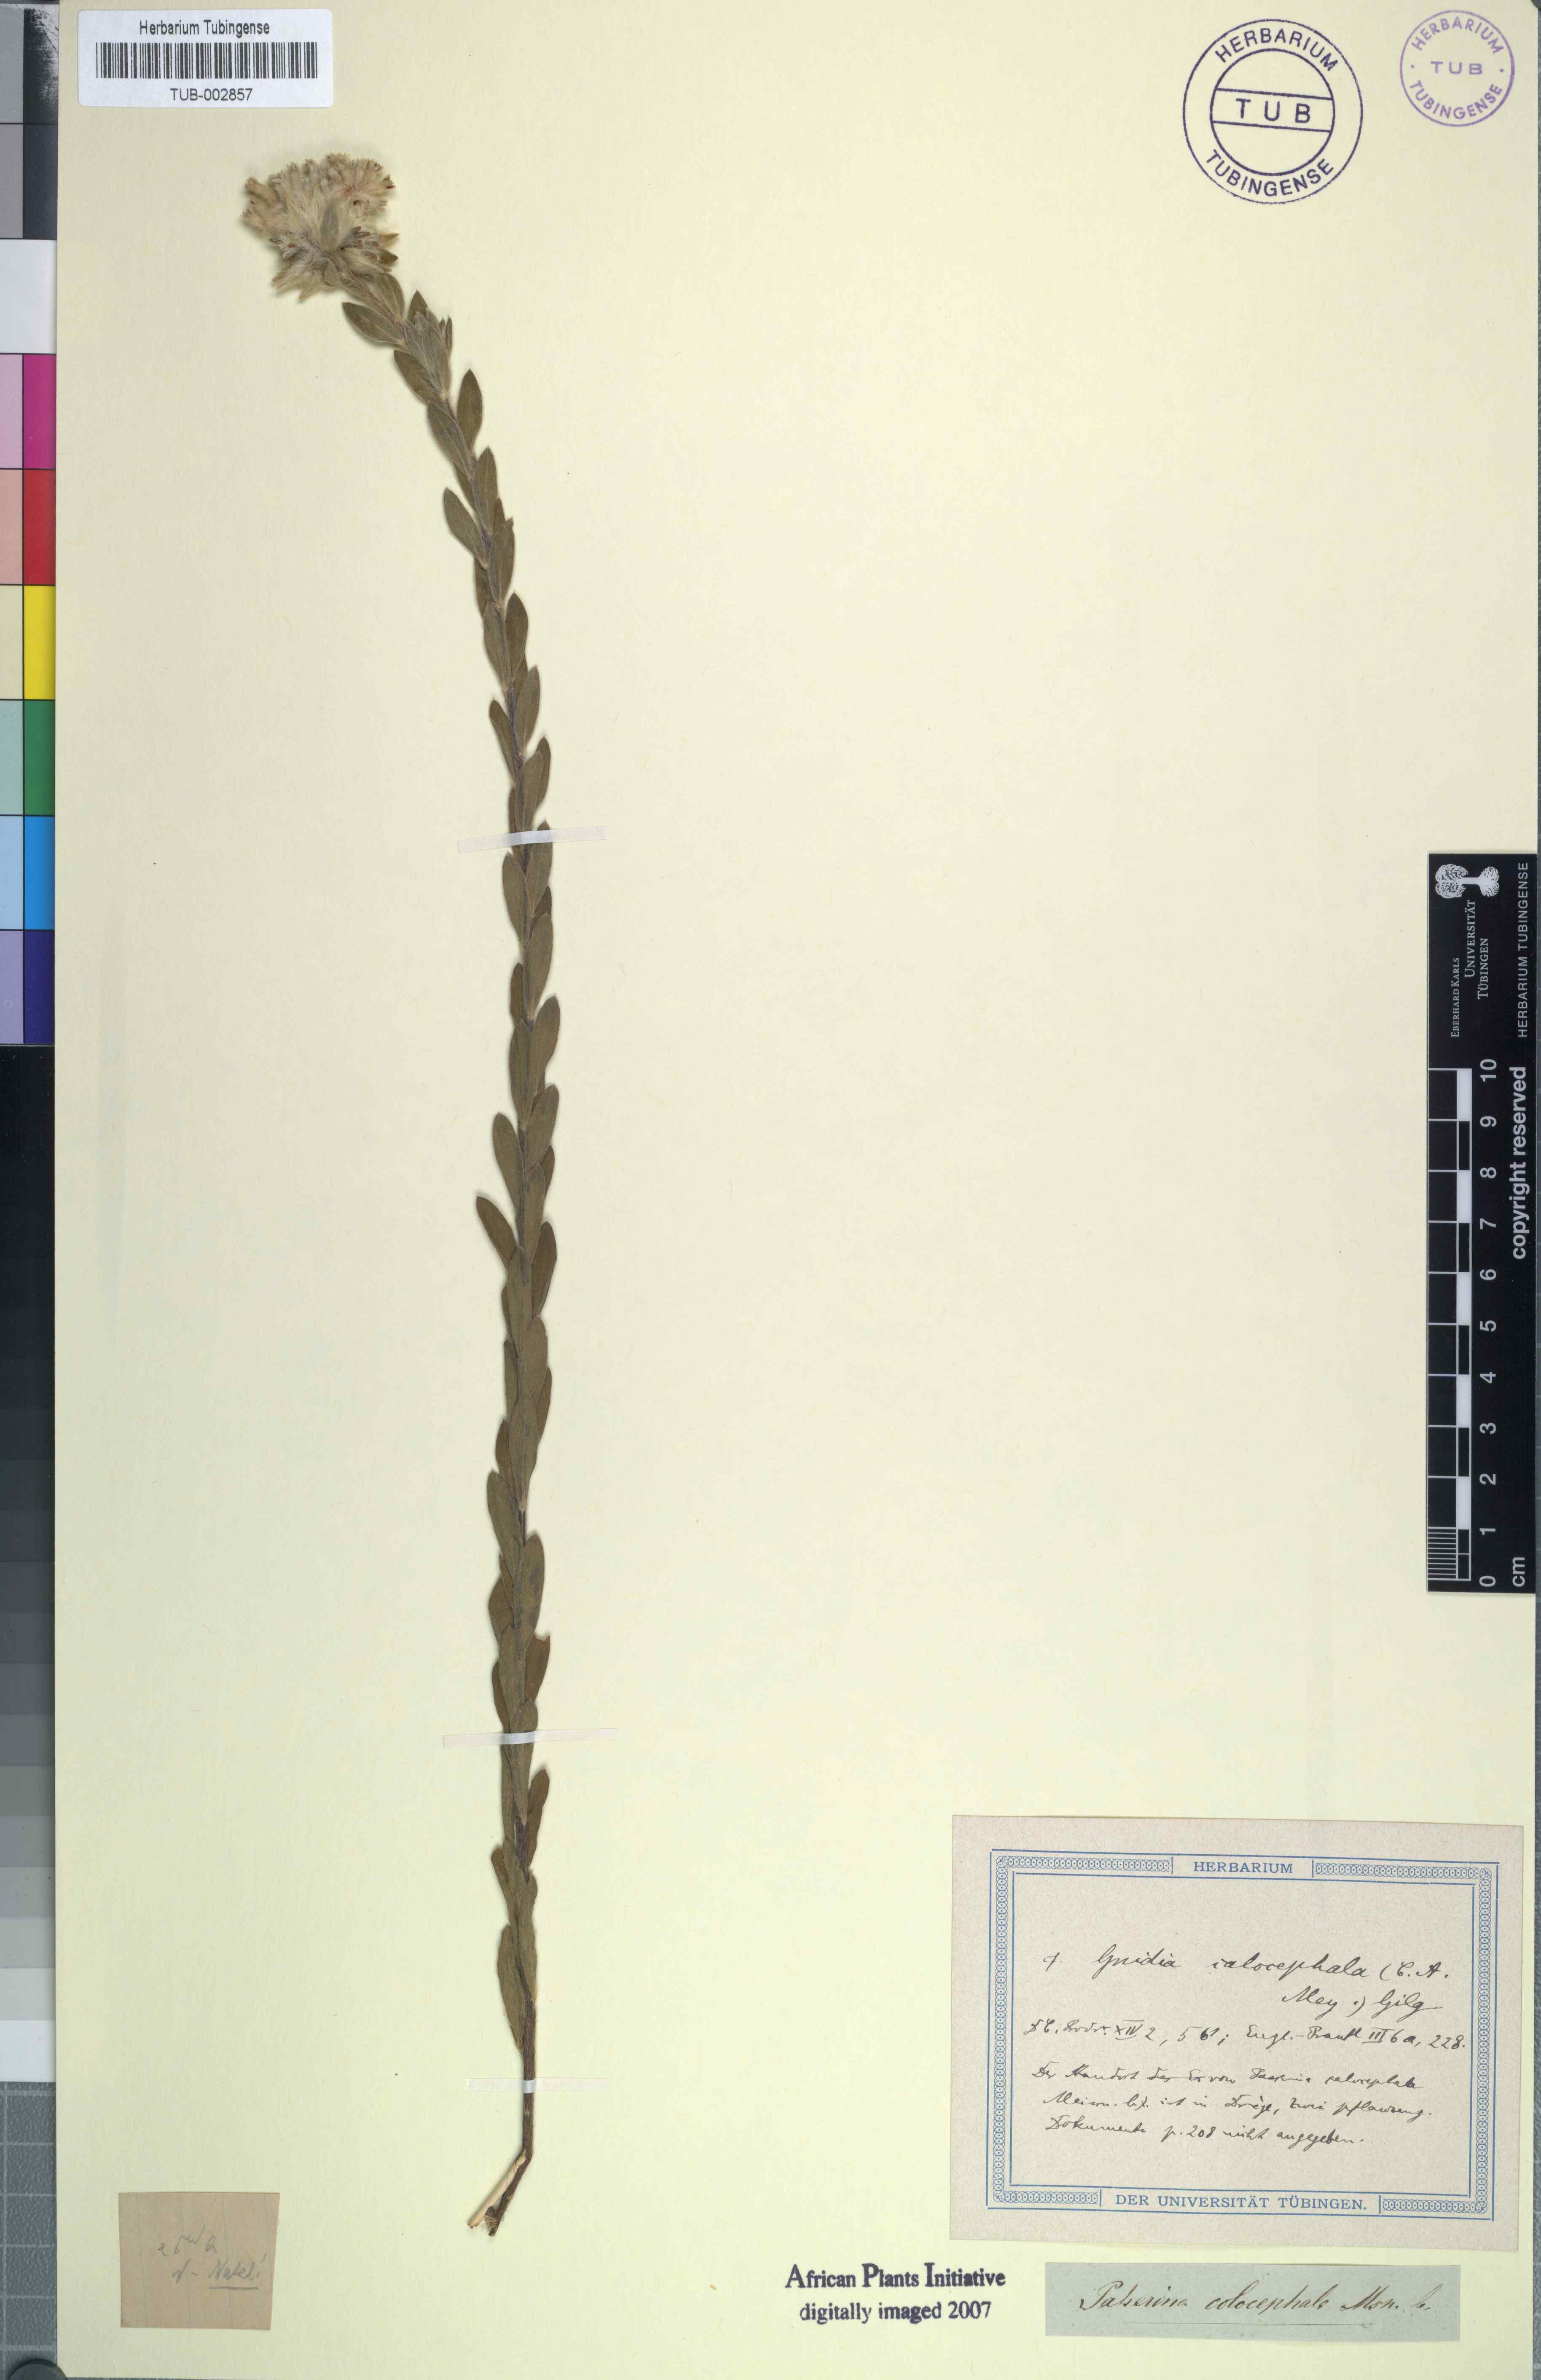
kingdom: Plantae
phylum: Tracheophyta
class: Magnoliopsida
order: Malvales
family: Thymelaeaceae
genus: Gnidia
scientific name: Gnidia calocephala
